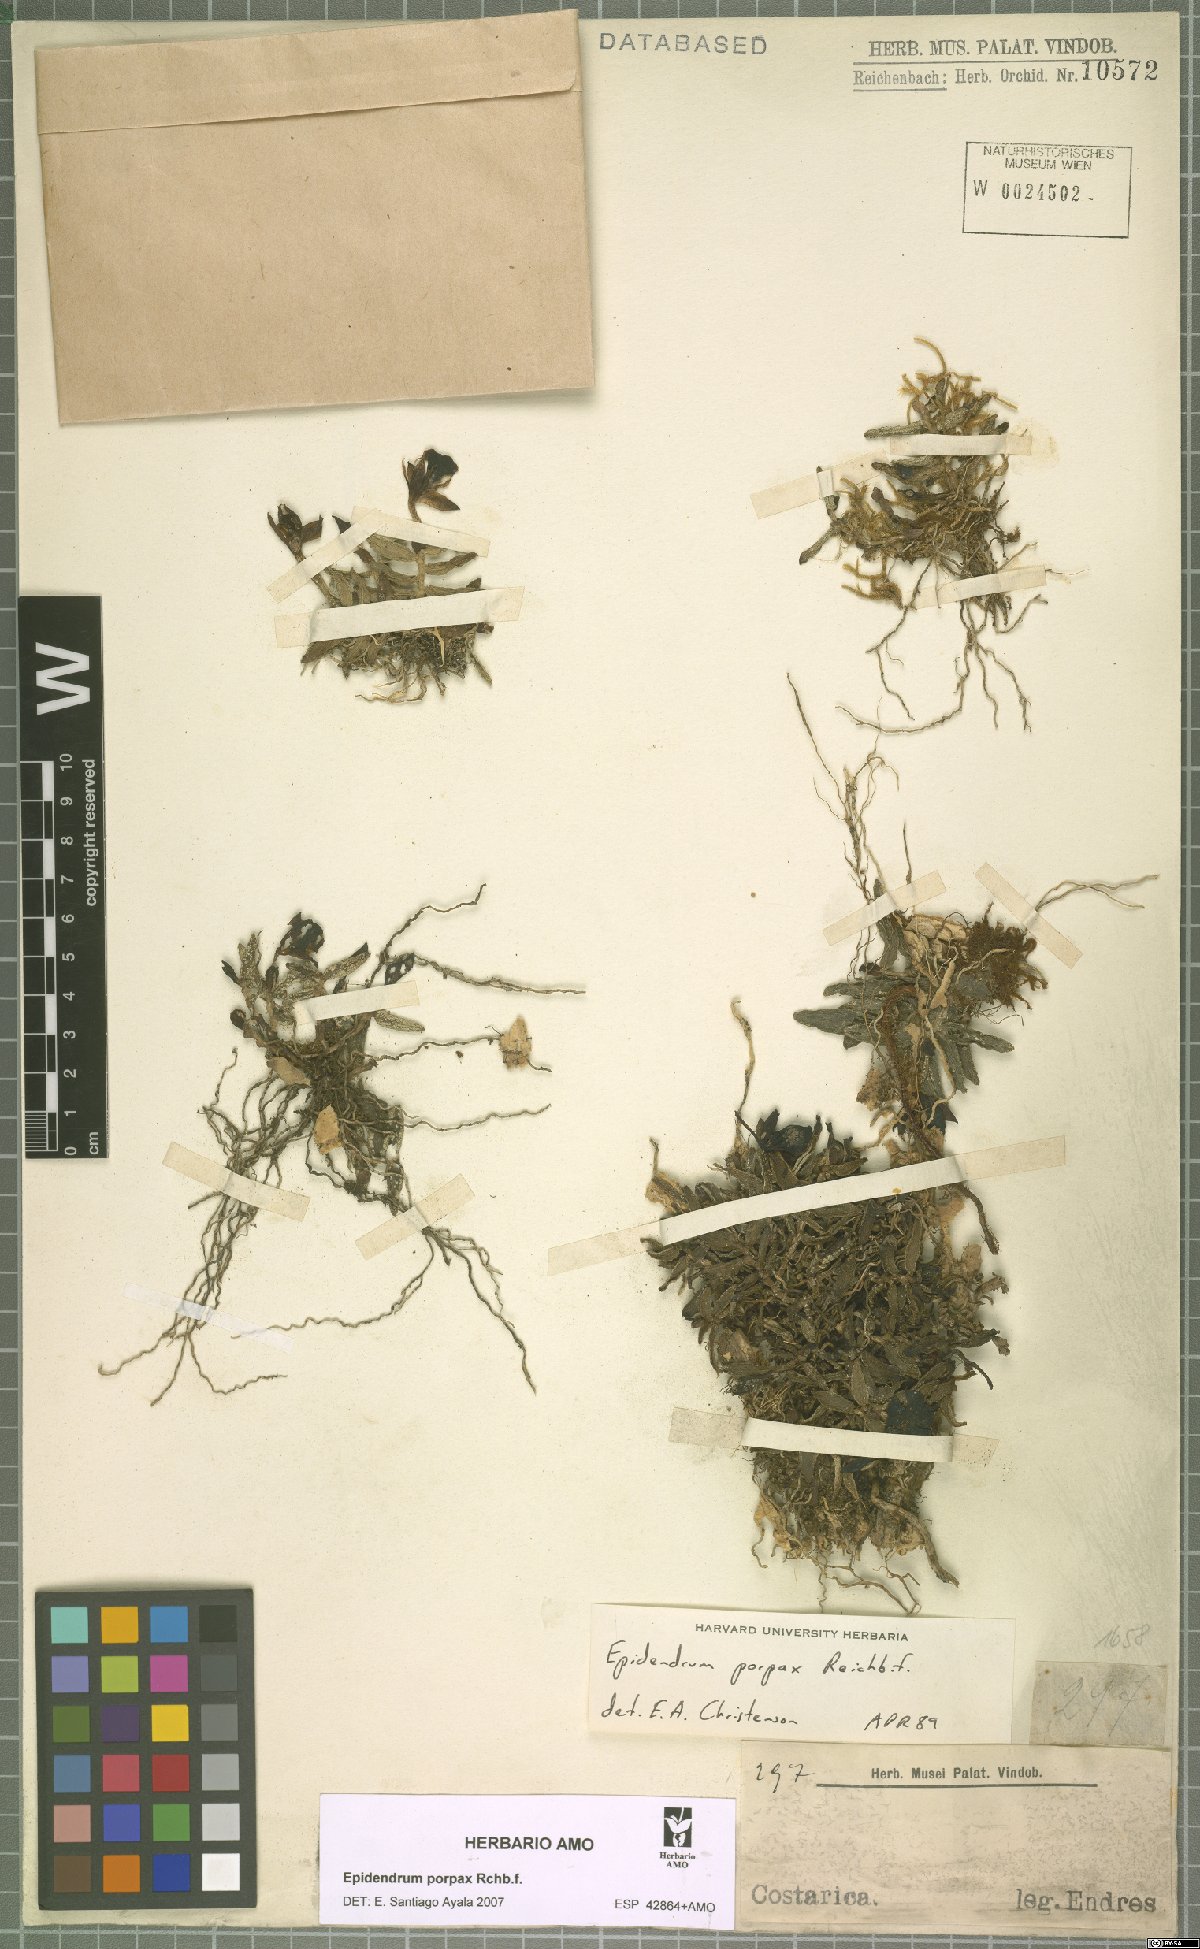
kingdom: Plantae
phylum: Tracheophyta
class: Liliopsida
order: Asparagales
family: Orchidaceae
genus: Epidendrum
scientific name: Epidendrum porpax
